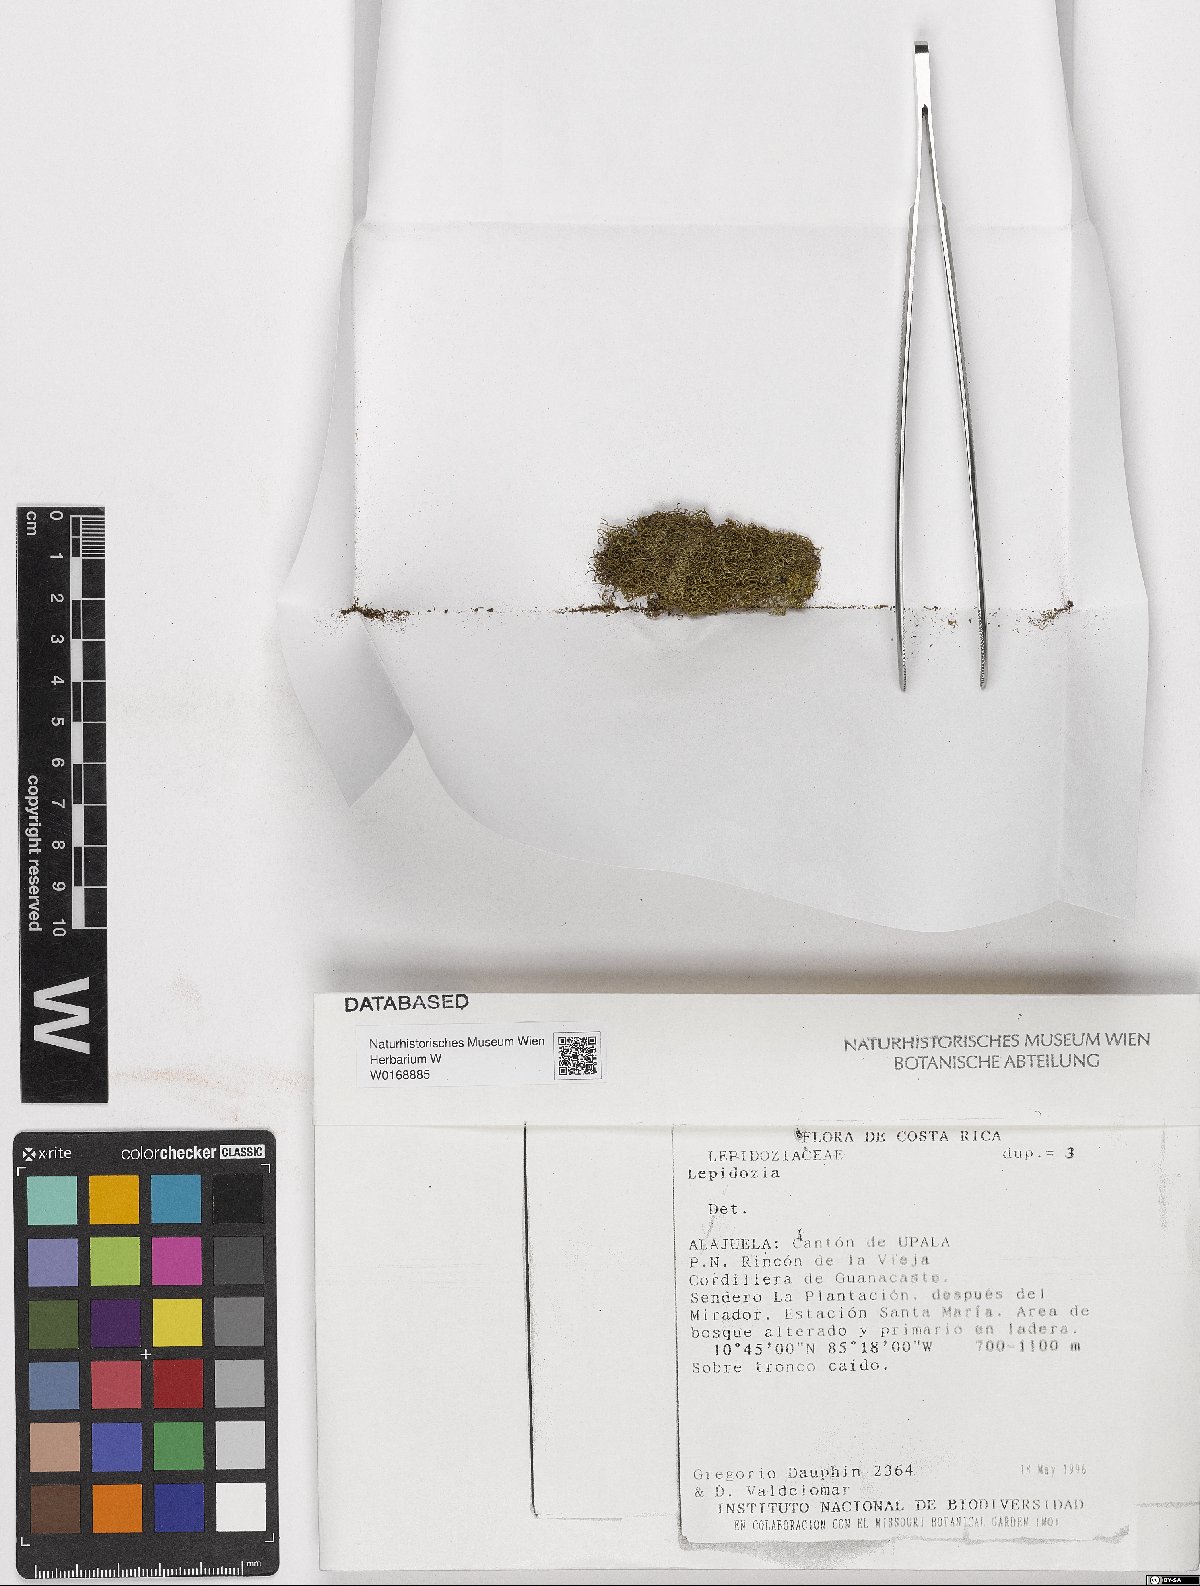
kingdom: Plantae
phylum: Marchantiophyta
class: Jungermanniopsida
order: Jungermanniales
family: Lepidoziaceae
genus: Lepidozia
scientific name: Lepidozia
